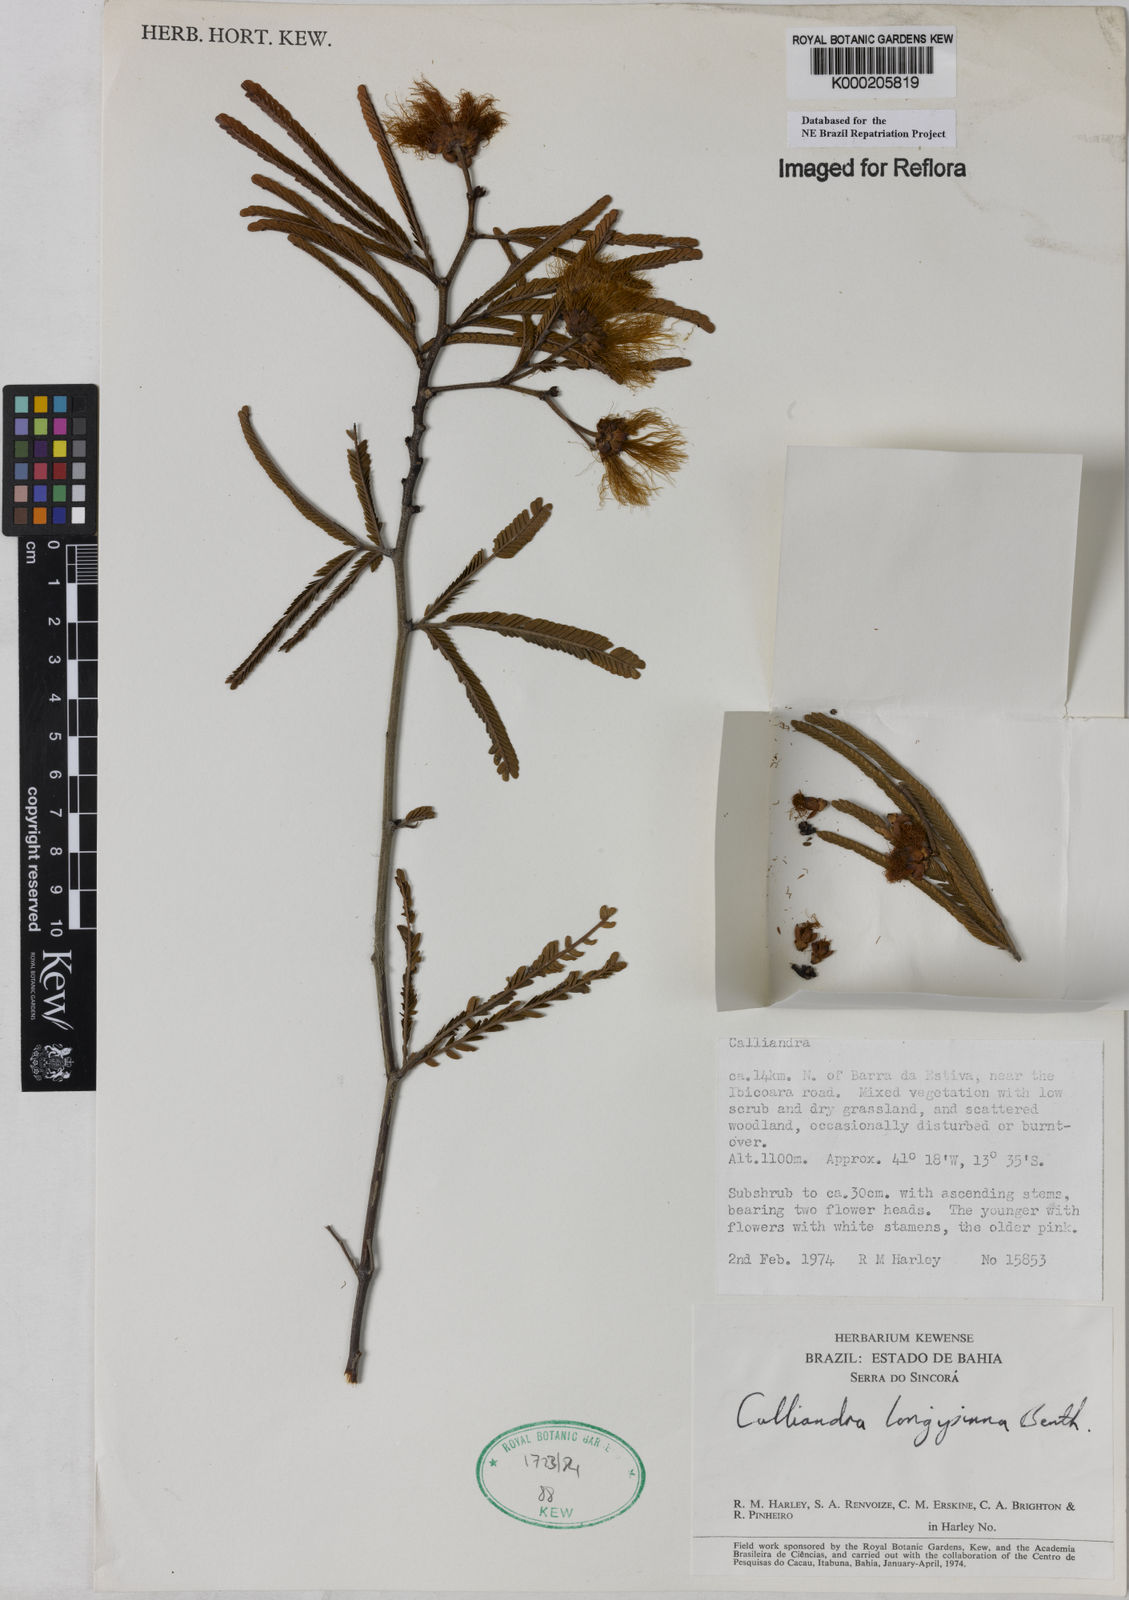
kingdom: Plantae
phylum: Tracheophyta
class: Magnoliopsida
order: Fabales
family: Fabaceae
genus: Calliandra
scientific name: Calliandra longipinna
